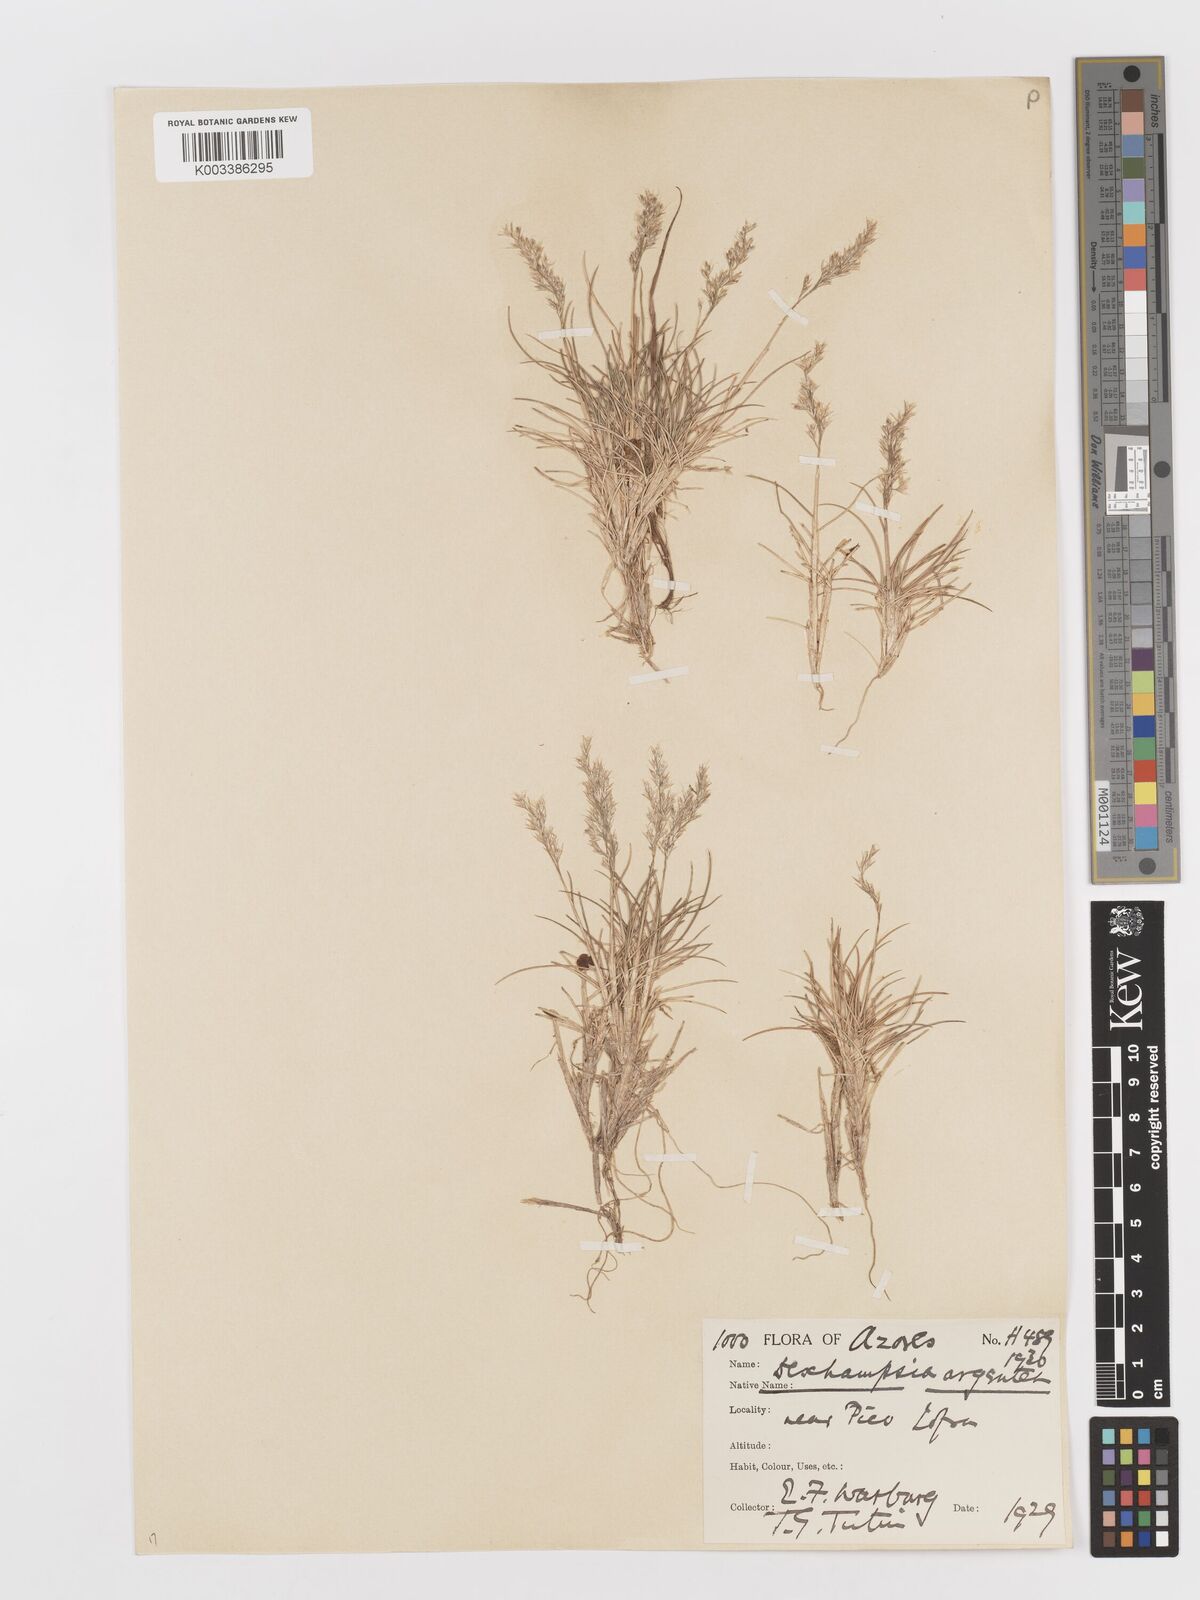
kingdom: Plantae
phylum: Tracheophyta
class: Liliopsida
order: Poales
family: Poaceae
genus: Avenella
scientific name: Avenella foliosa
